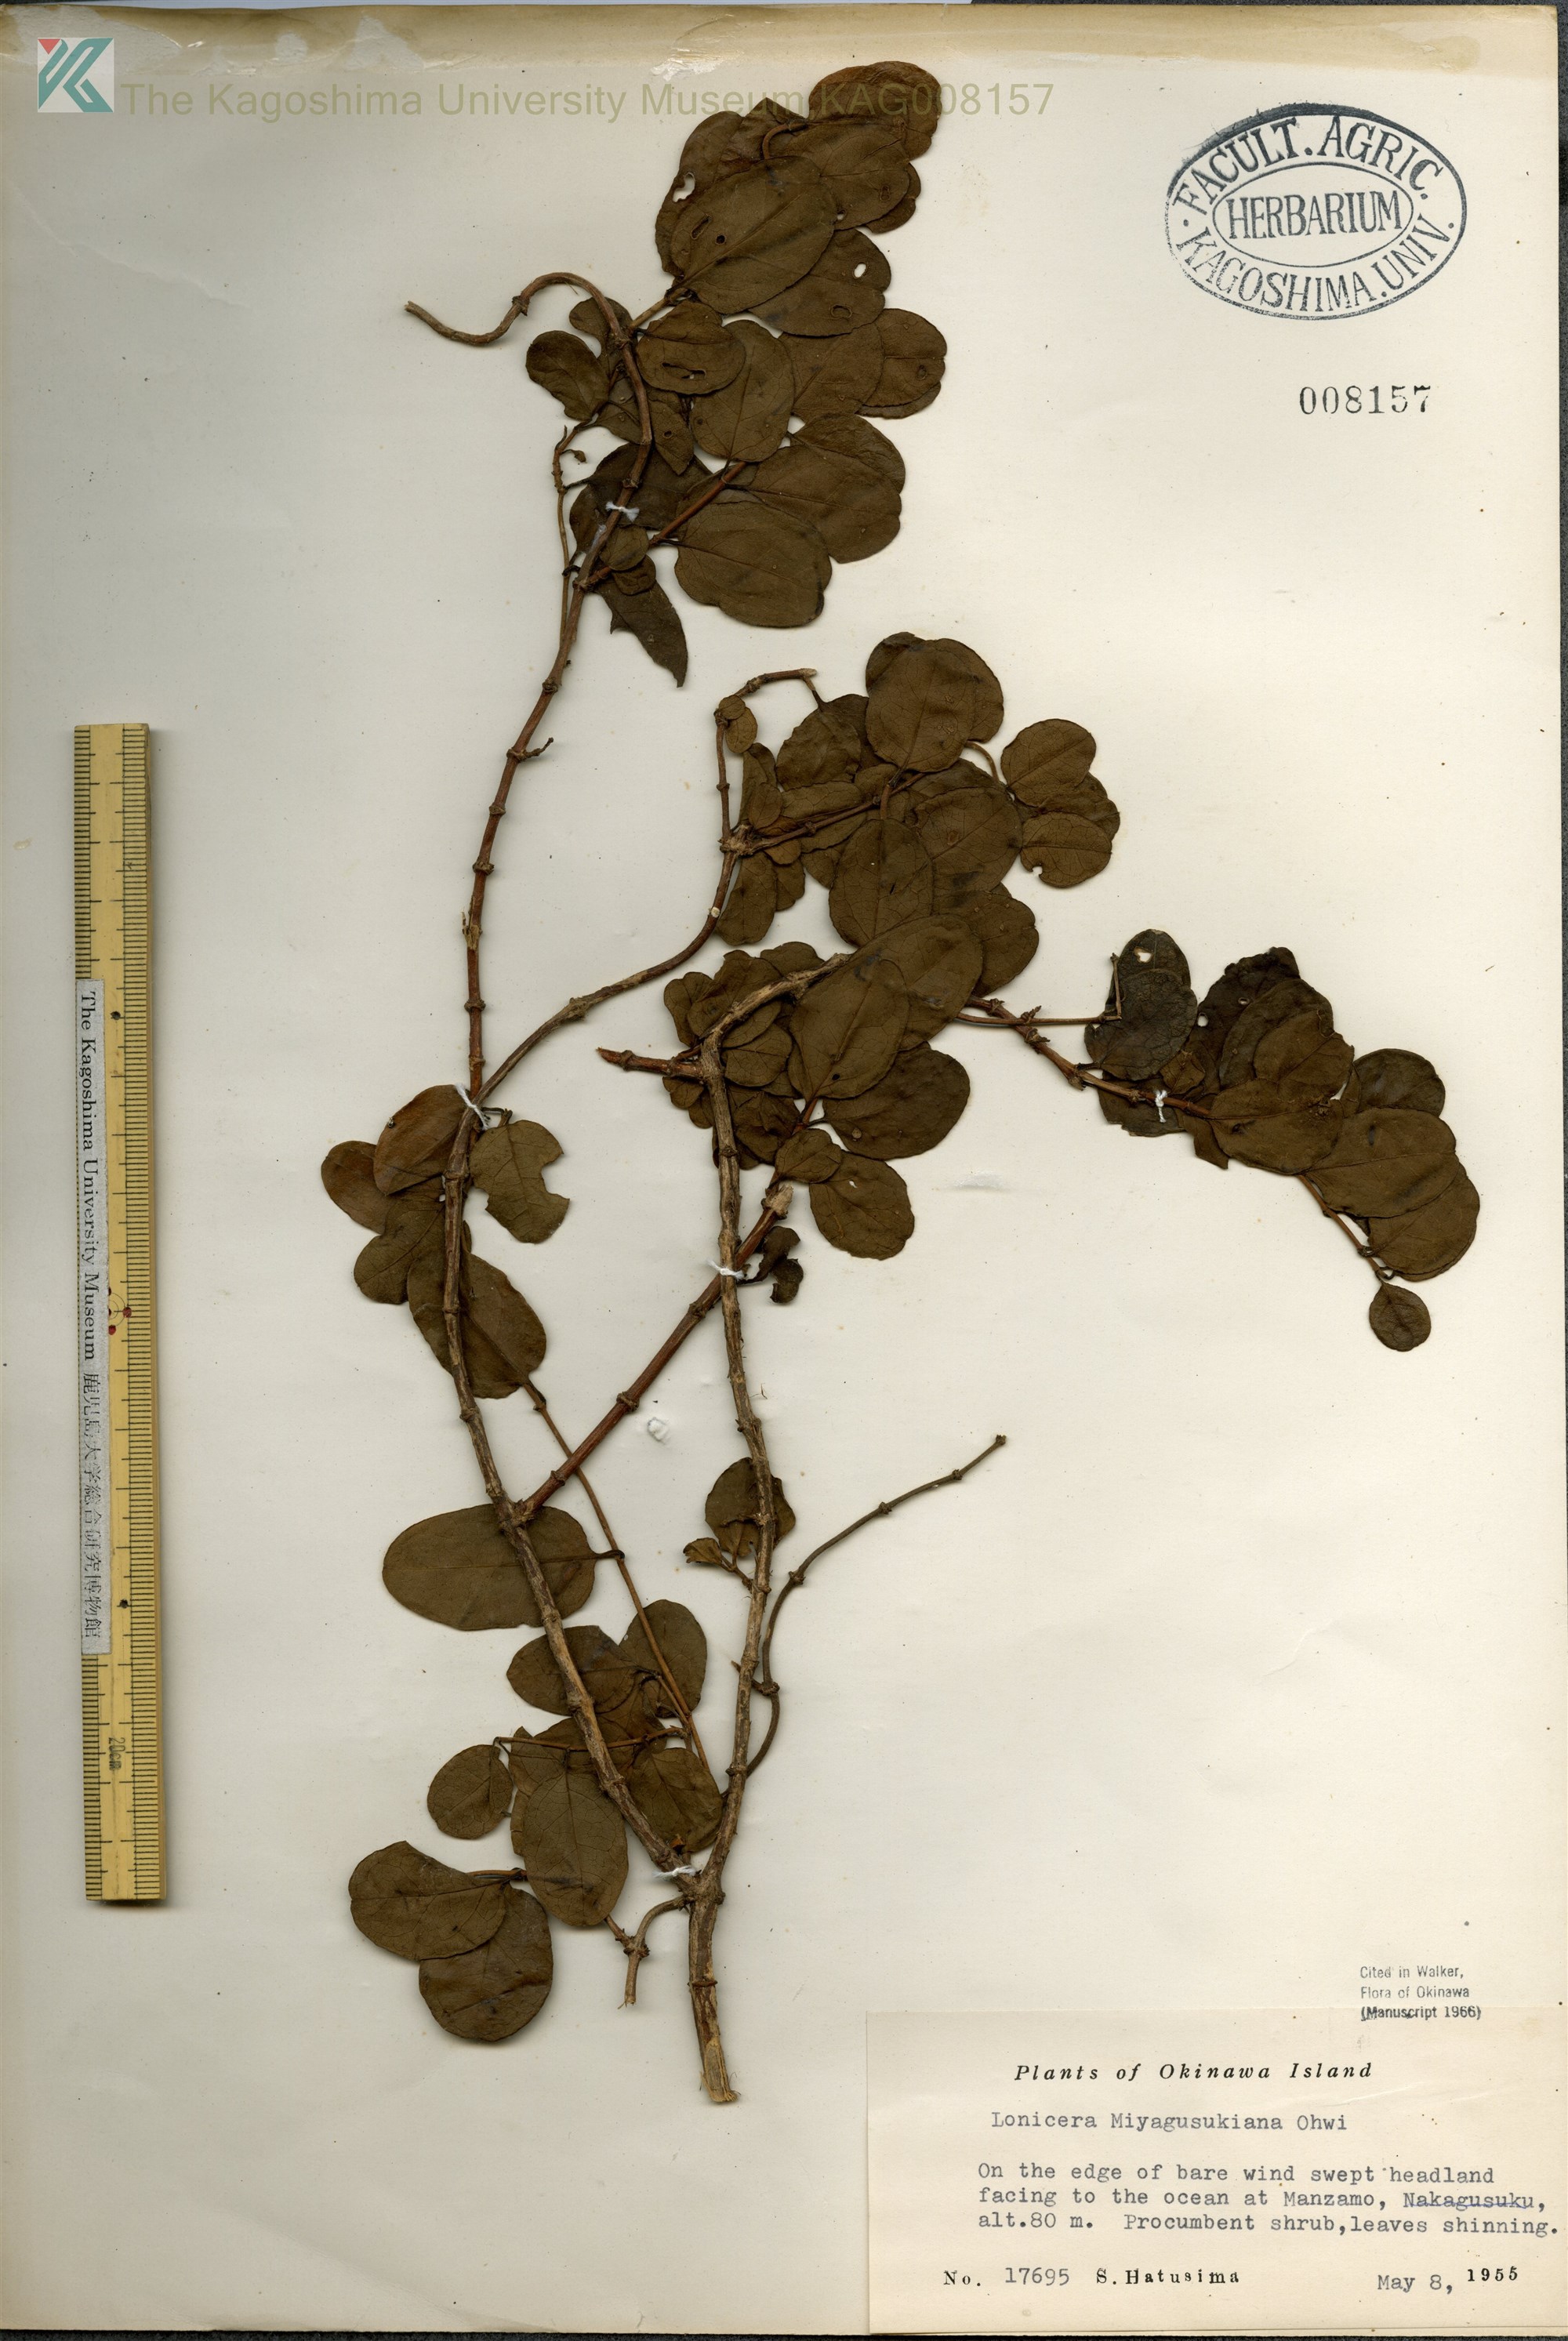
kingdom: Plantae
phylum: Tracheophyta
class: Magnoliopsida
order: Dipsacales
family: Caprifoliaceae
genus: Lonicera
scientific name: Lonicera japonica
